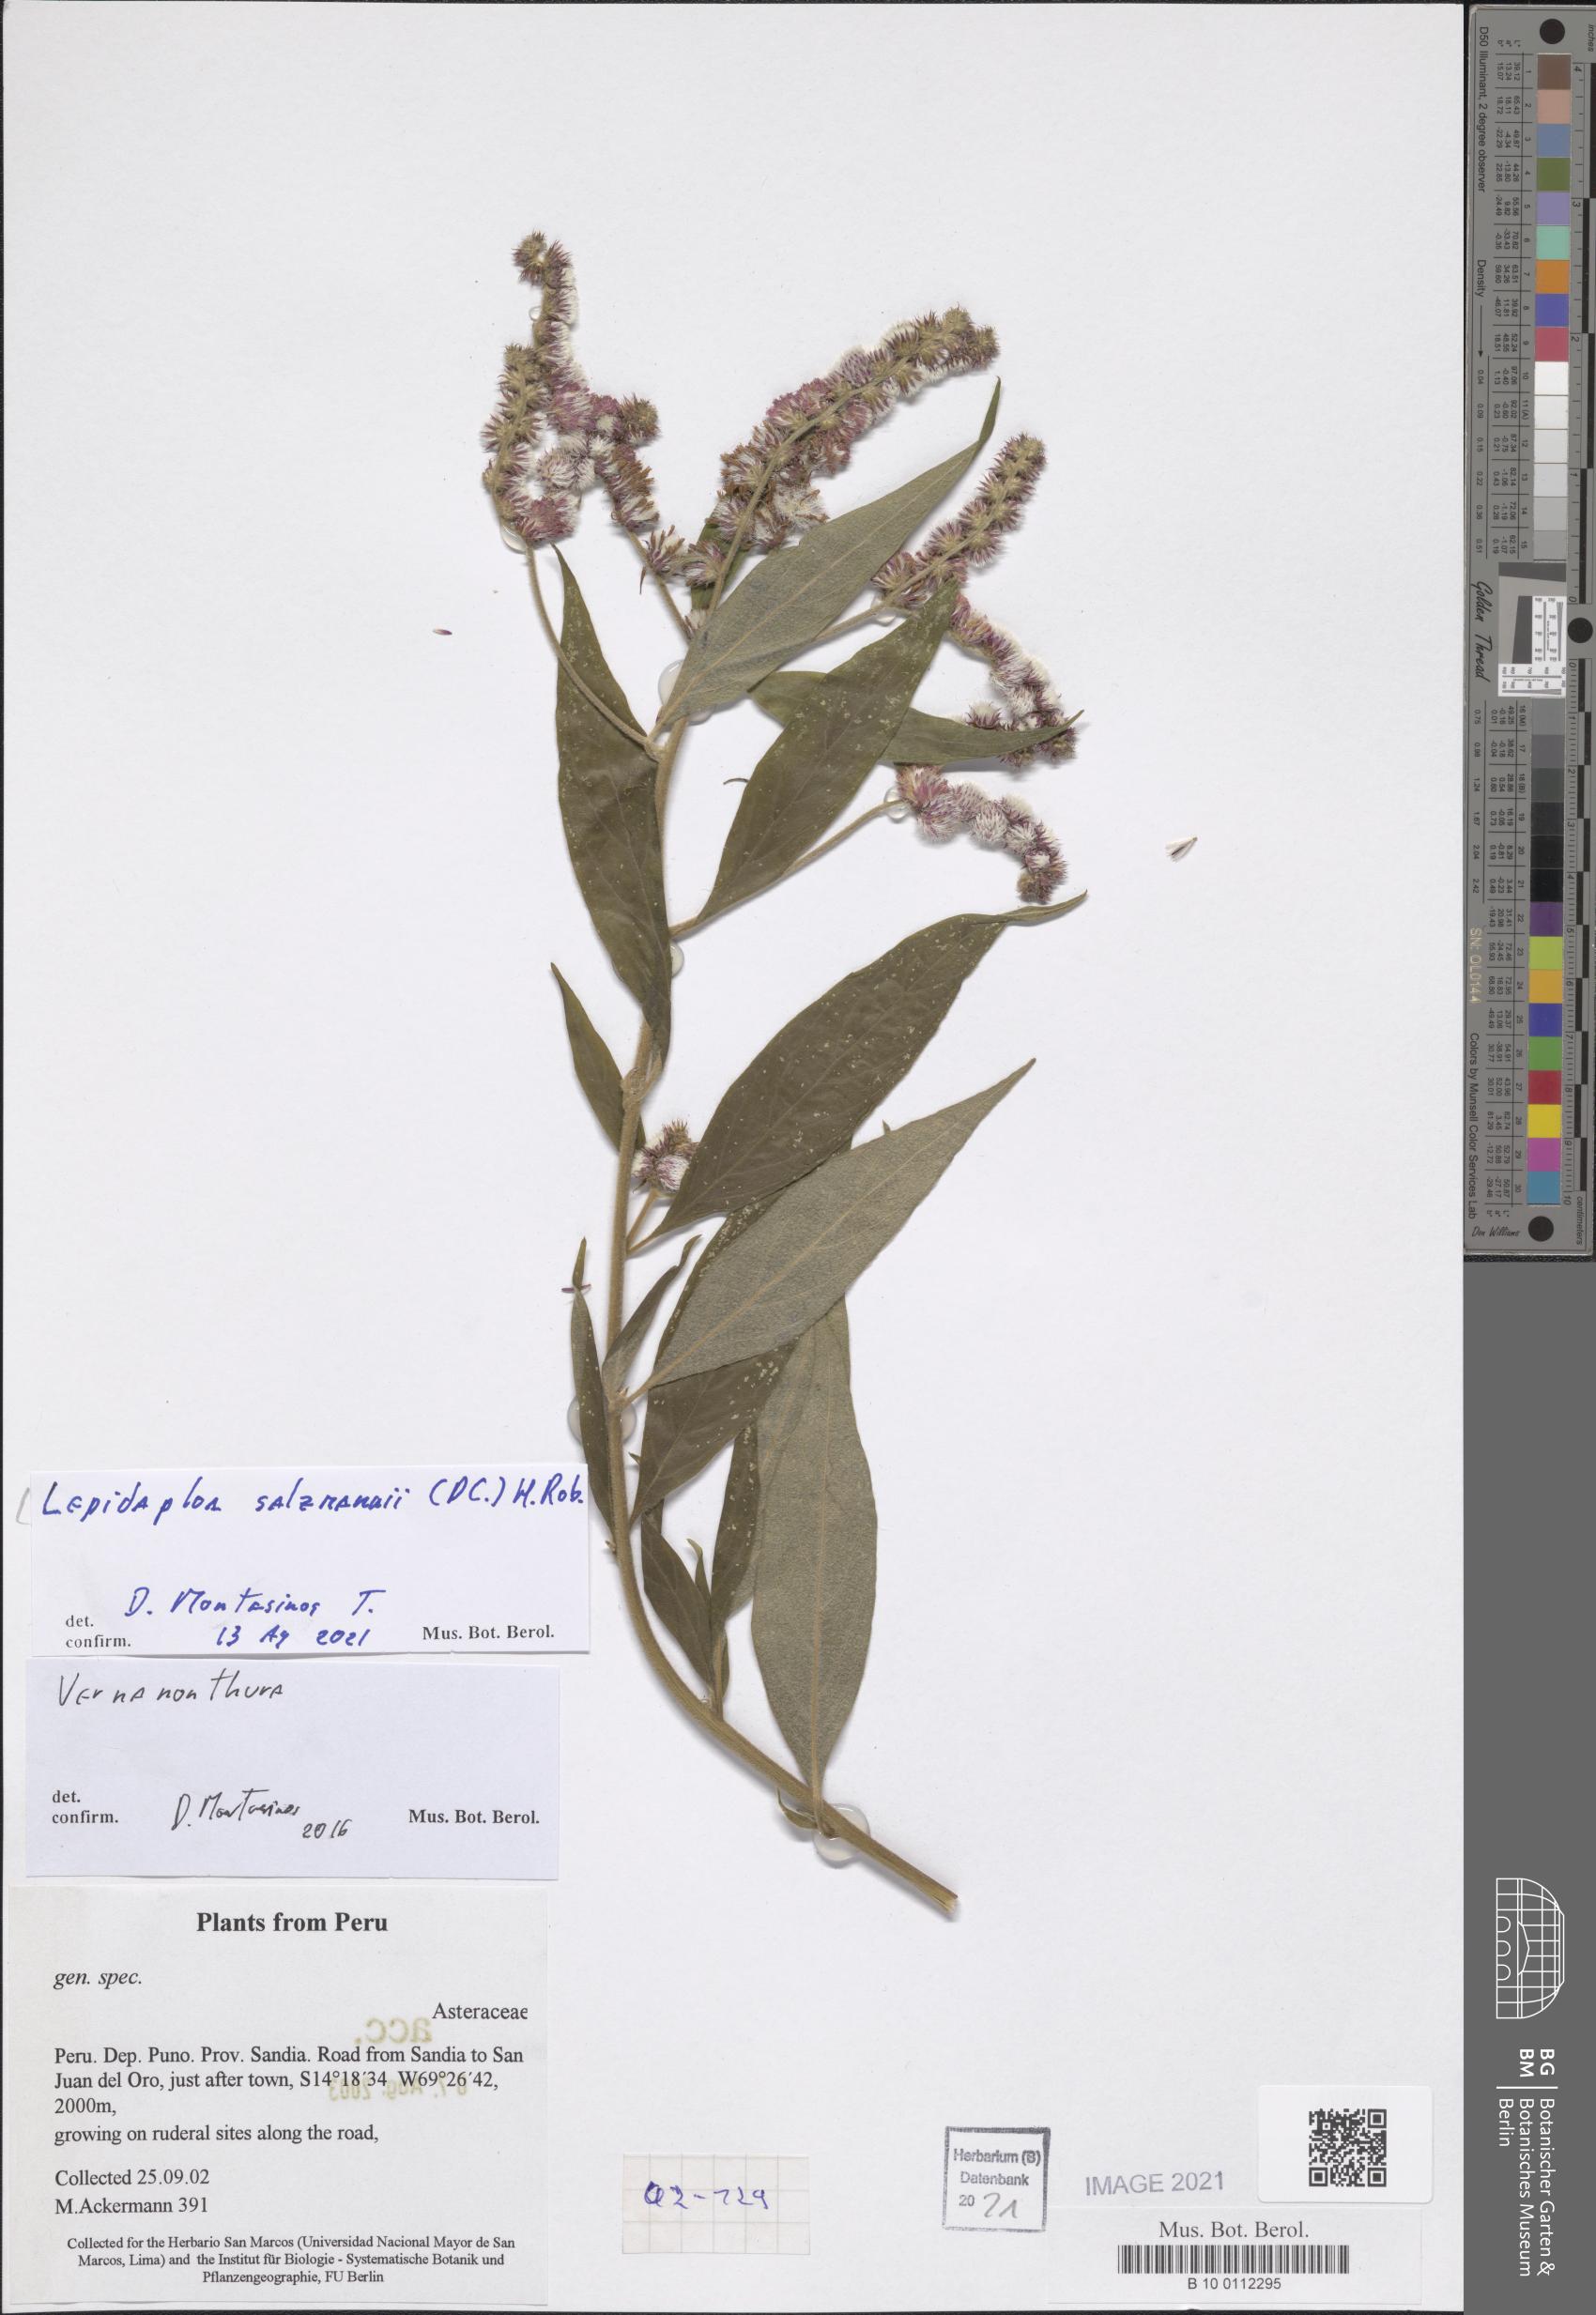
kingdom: Plantae
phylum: Tracheophyta
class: Magnoliopsida
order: Asterales
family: Asteraceae
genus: Lepidaploa
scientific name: Lepidaploa salzmannii
